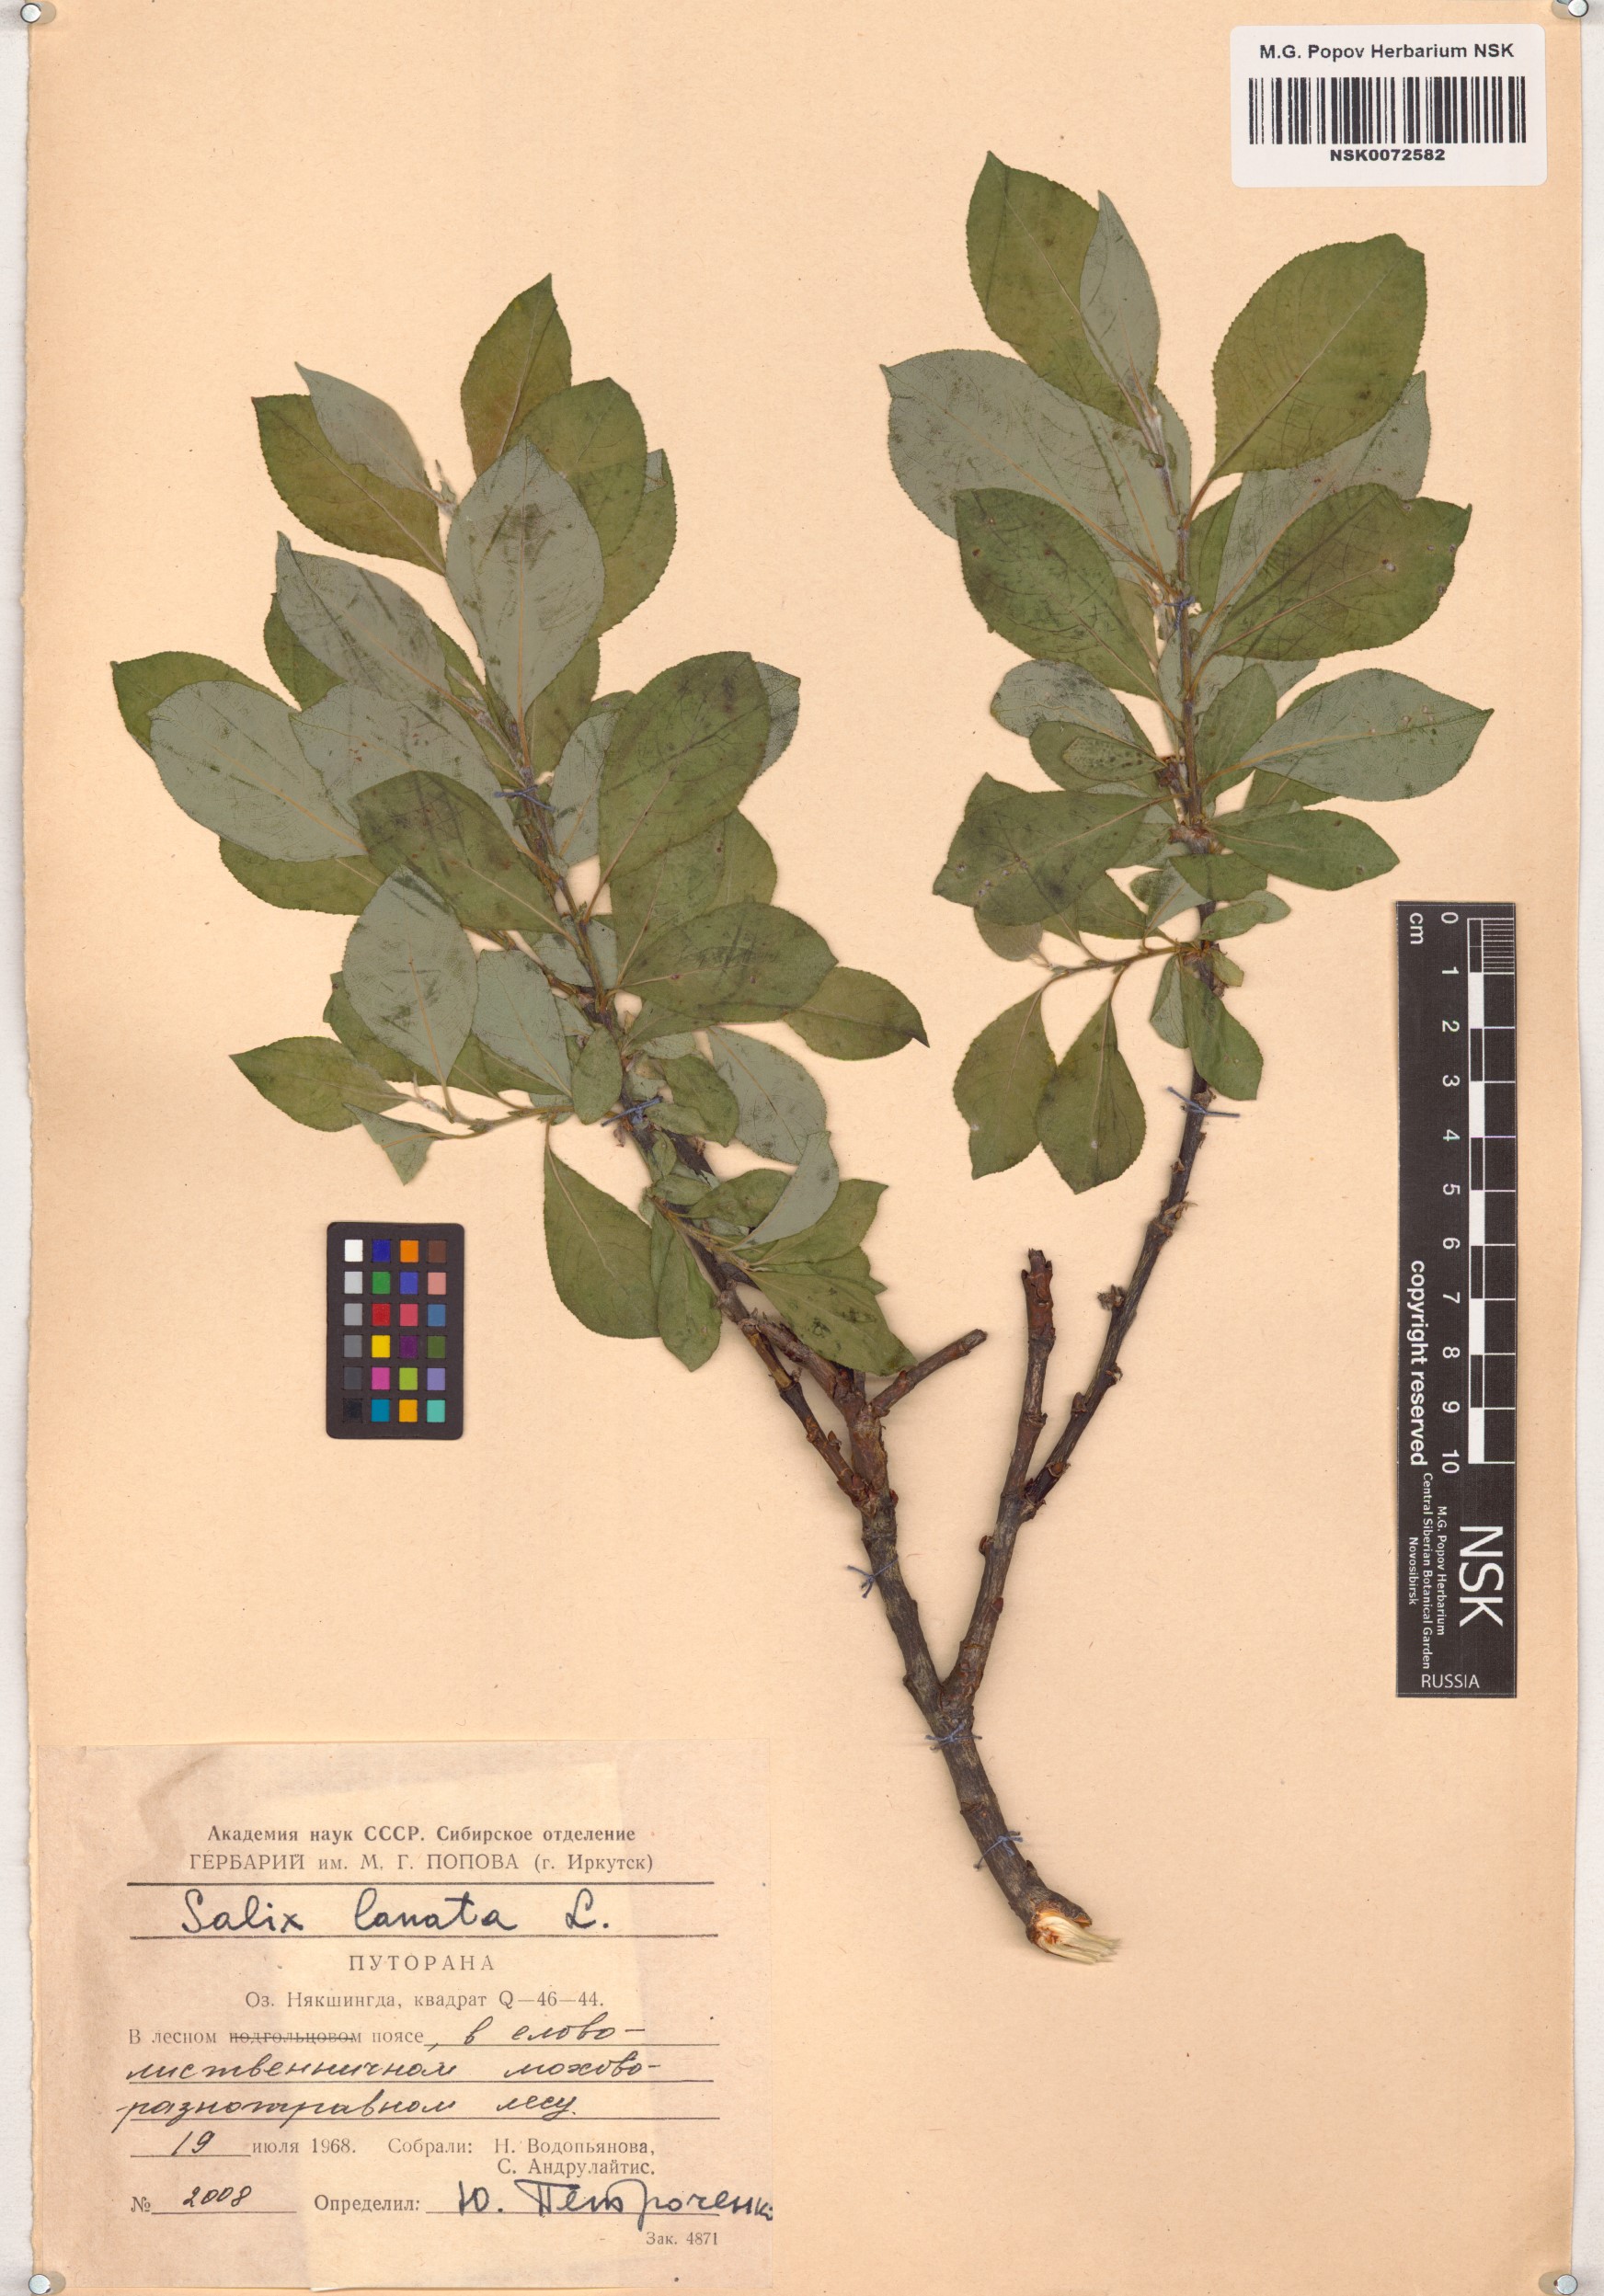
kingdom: Plantae
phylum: Tracheophyta
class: Magnoliopsida
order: Malpighiales
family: Salicaceae
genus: Salix
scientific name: Salix lanata
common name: Woolly willow
